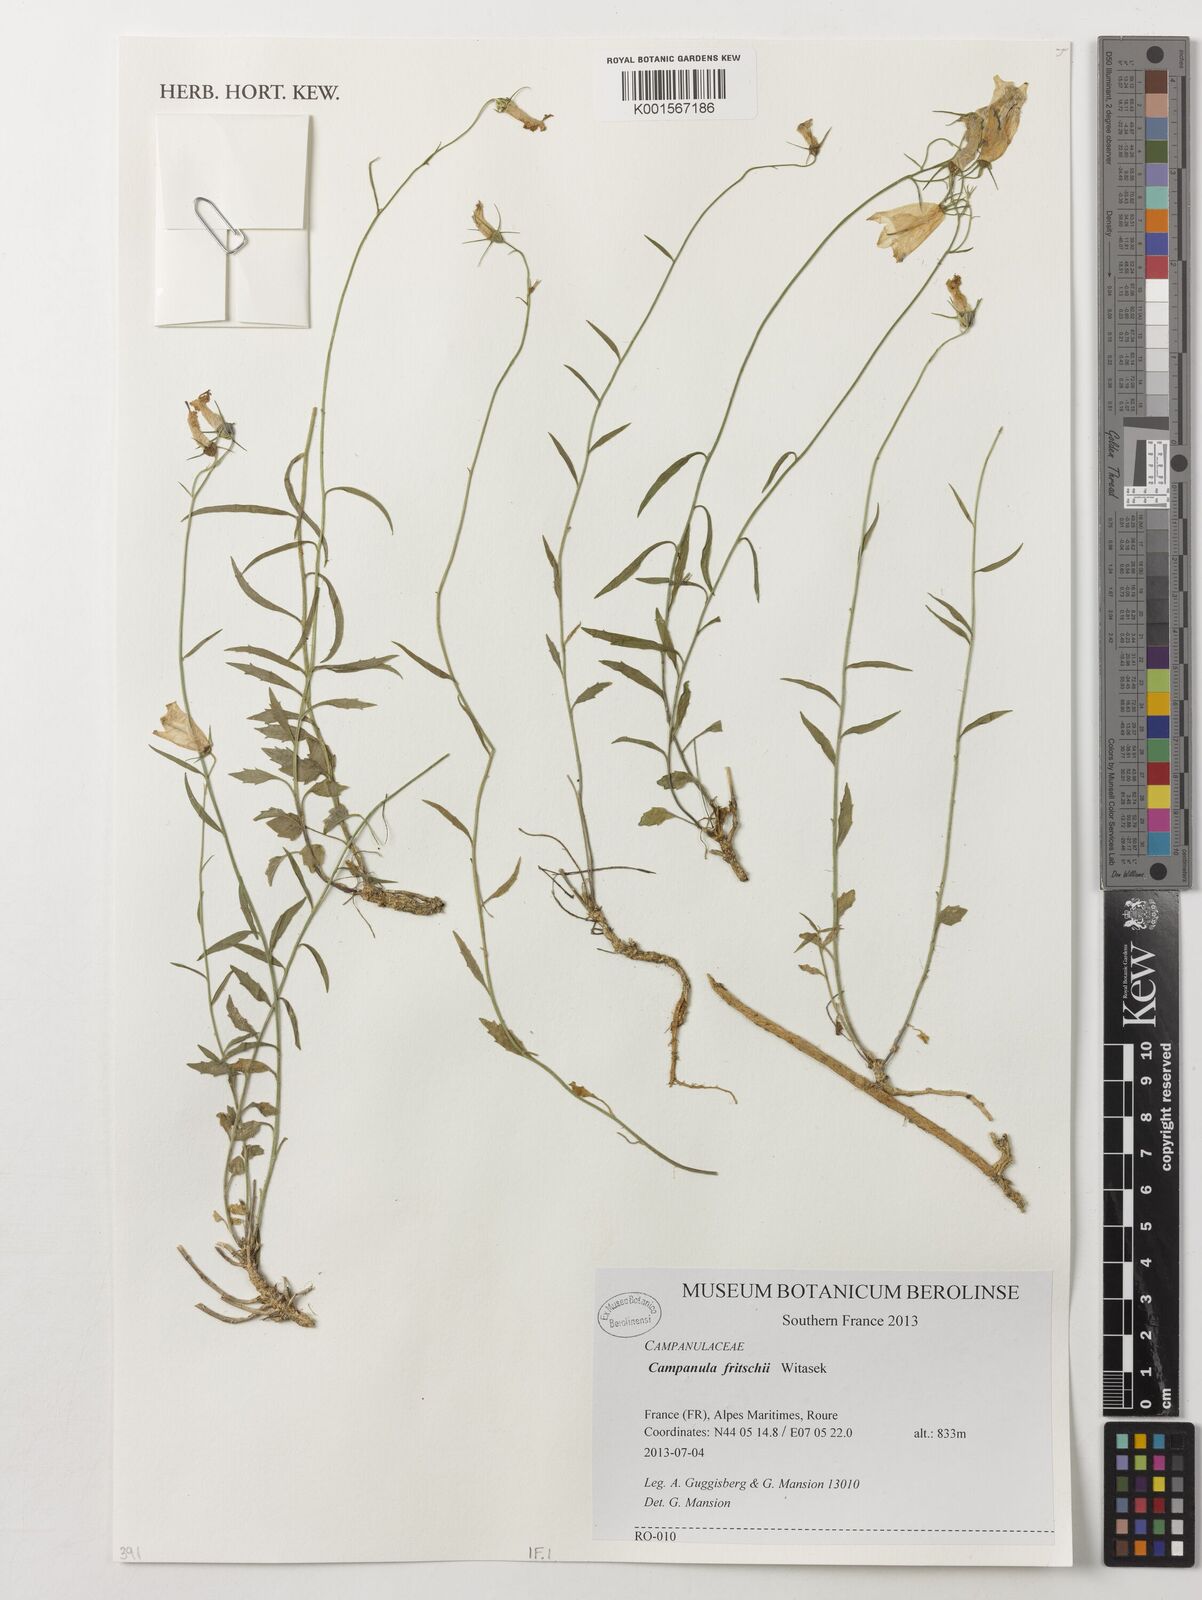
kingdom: Plantae
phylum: Tracheophyta
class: Magnoliopsida
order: Asterales
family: Campanulaceae
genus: Campanula
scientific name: Campanula fritschii
